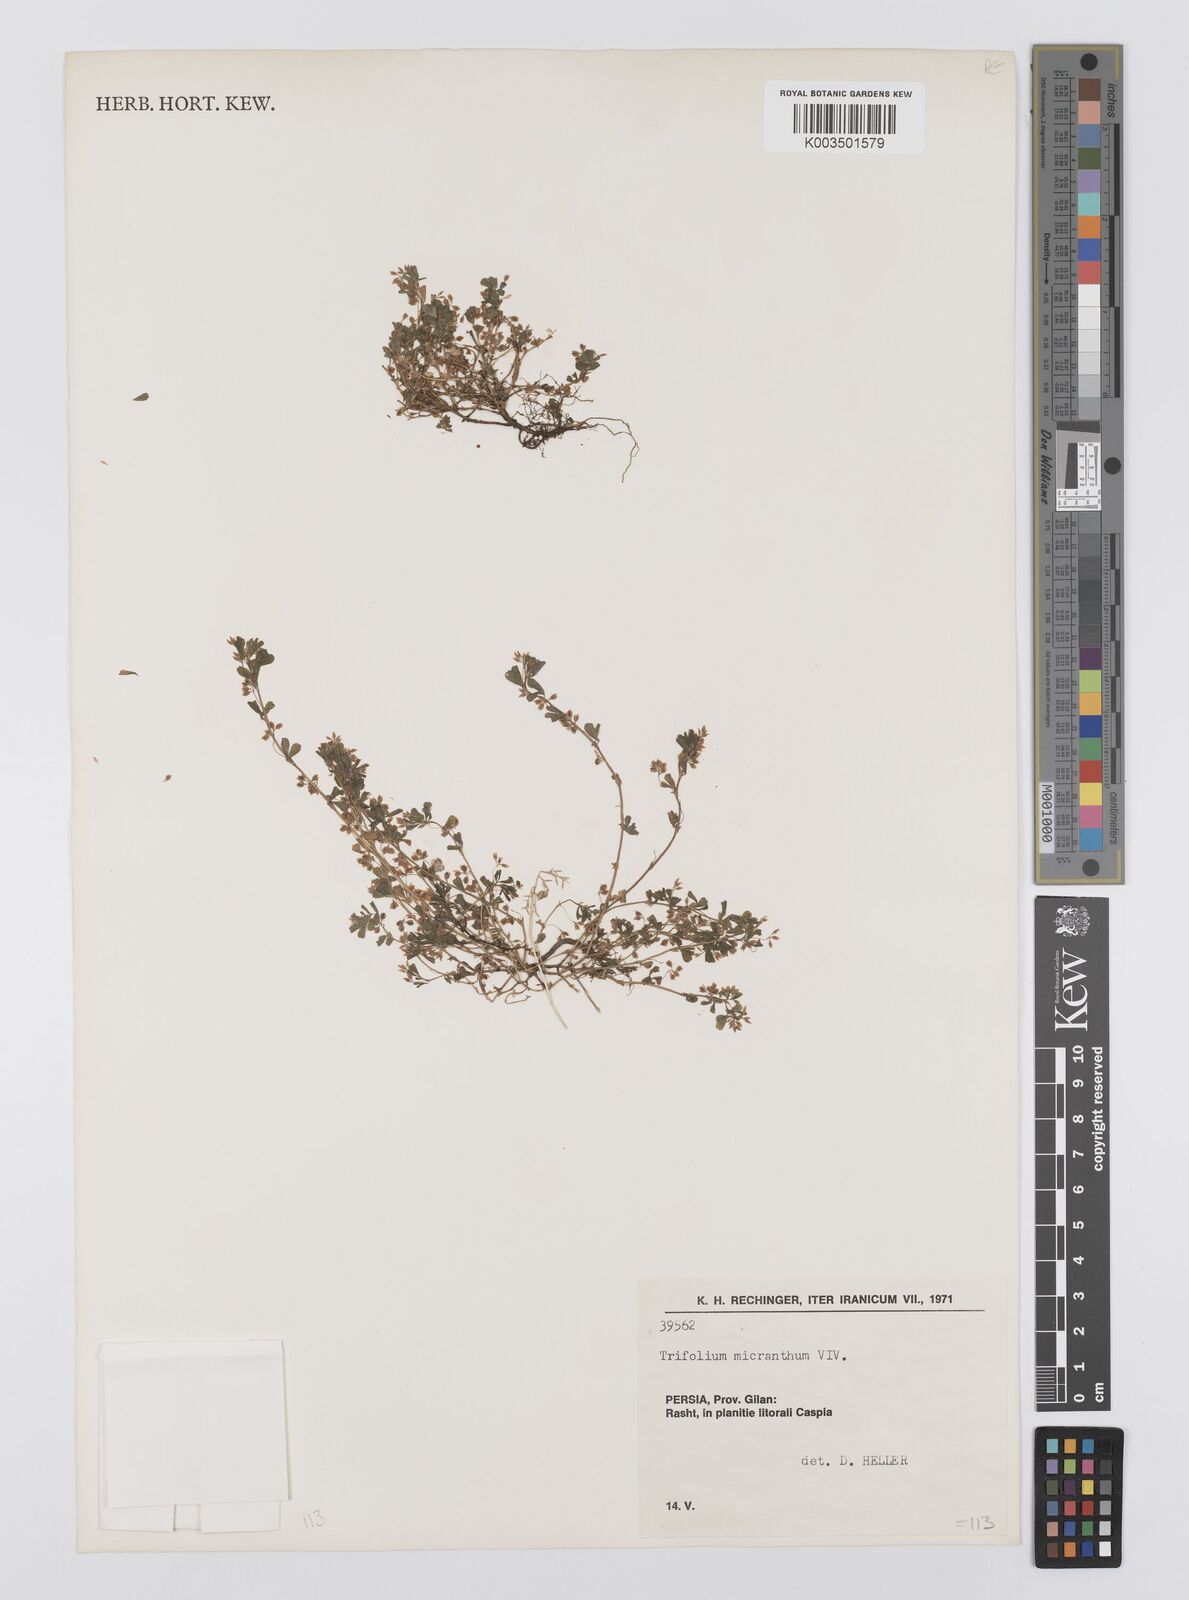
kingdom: Plantae
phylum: Tracheophyta
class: Magnoliopsida
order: Fabales
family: Fabaceae
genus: Trifolium
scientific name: Trifolium micranthum
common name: Slender trefoil
